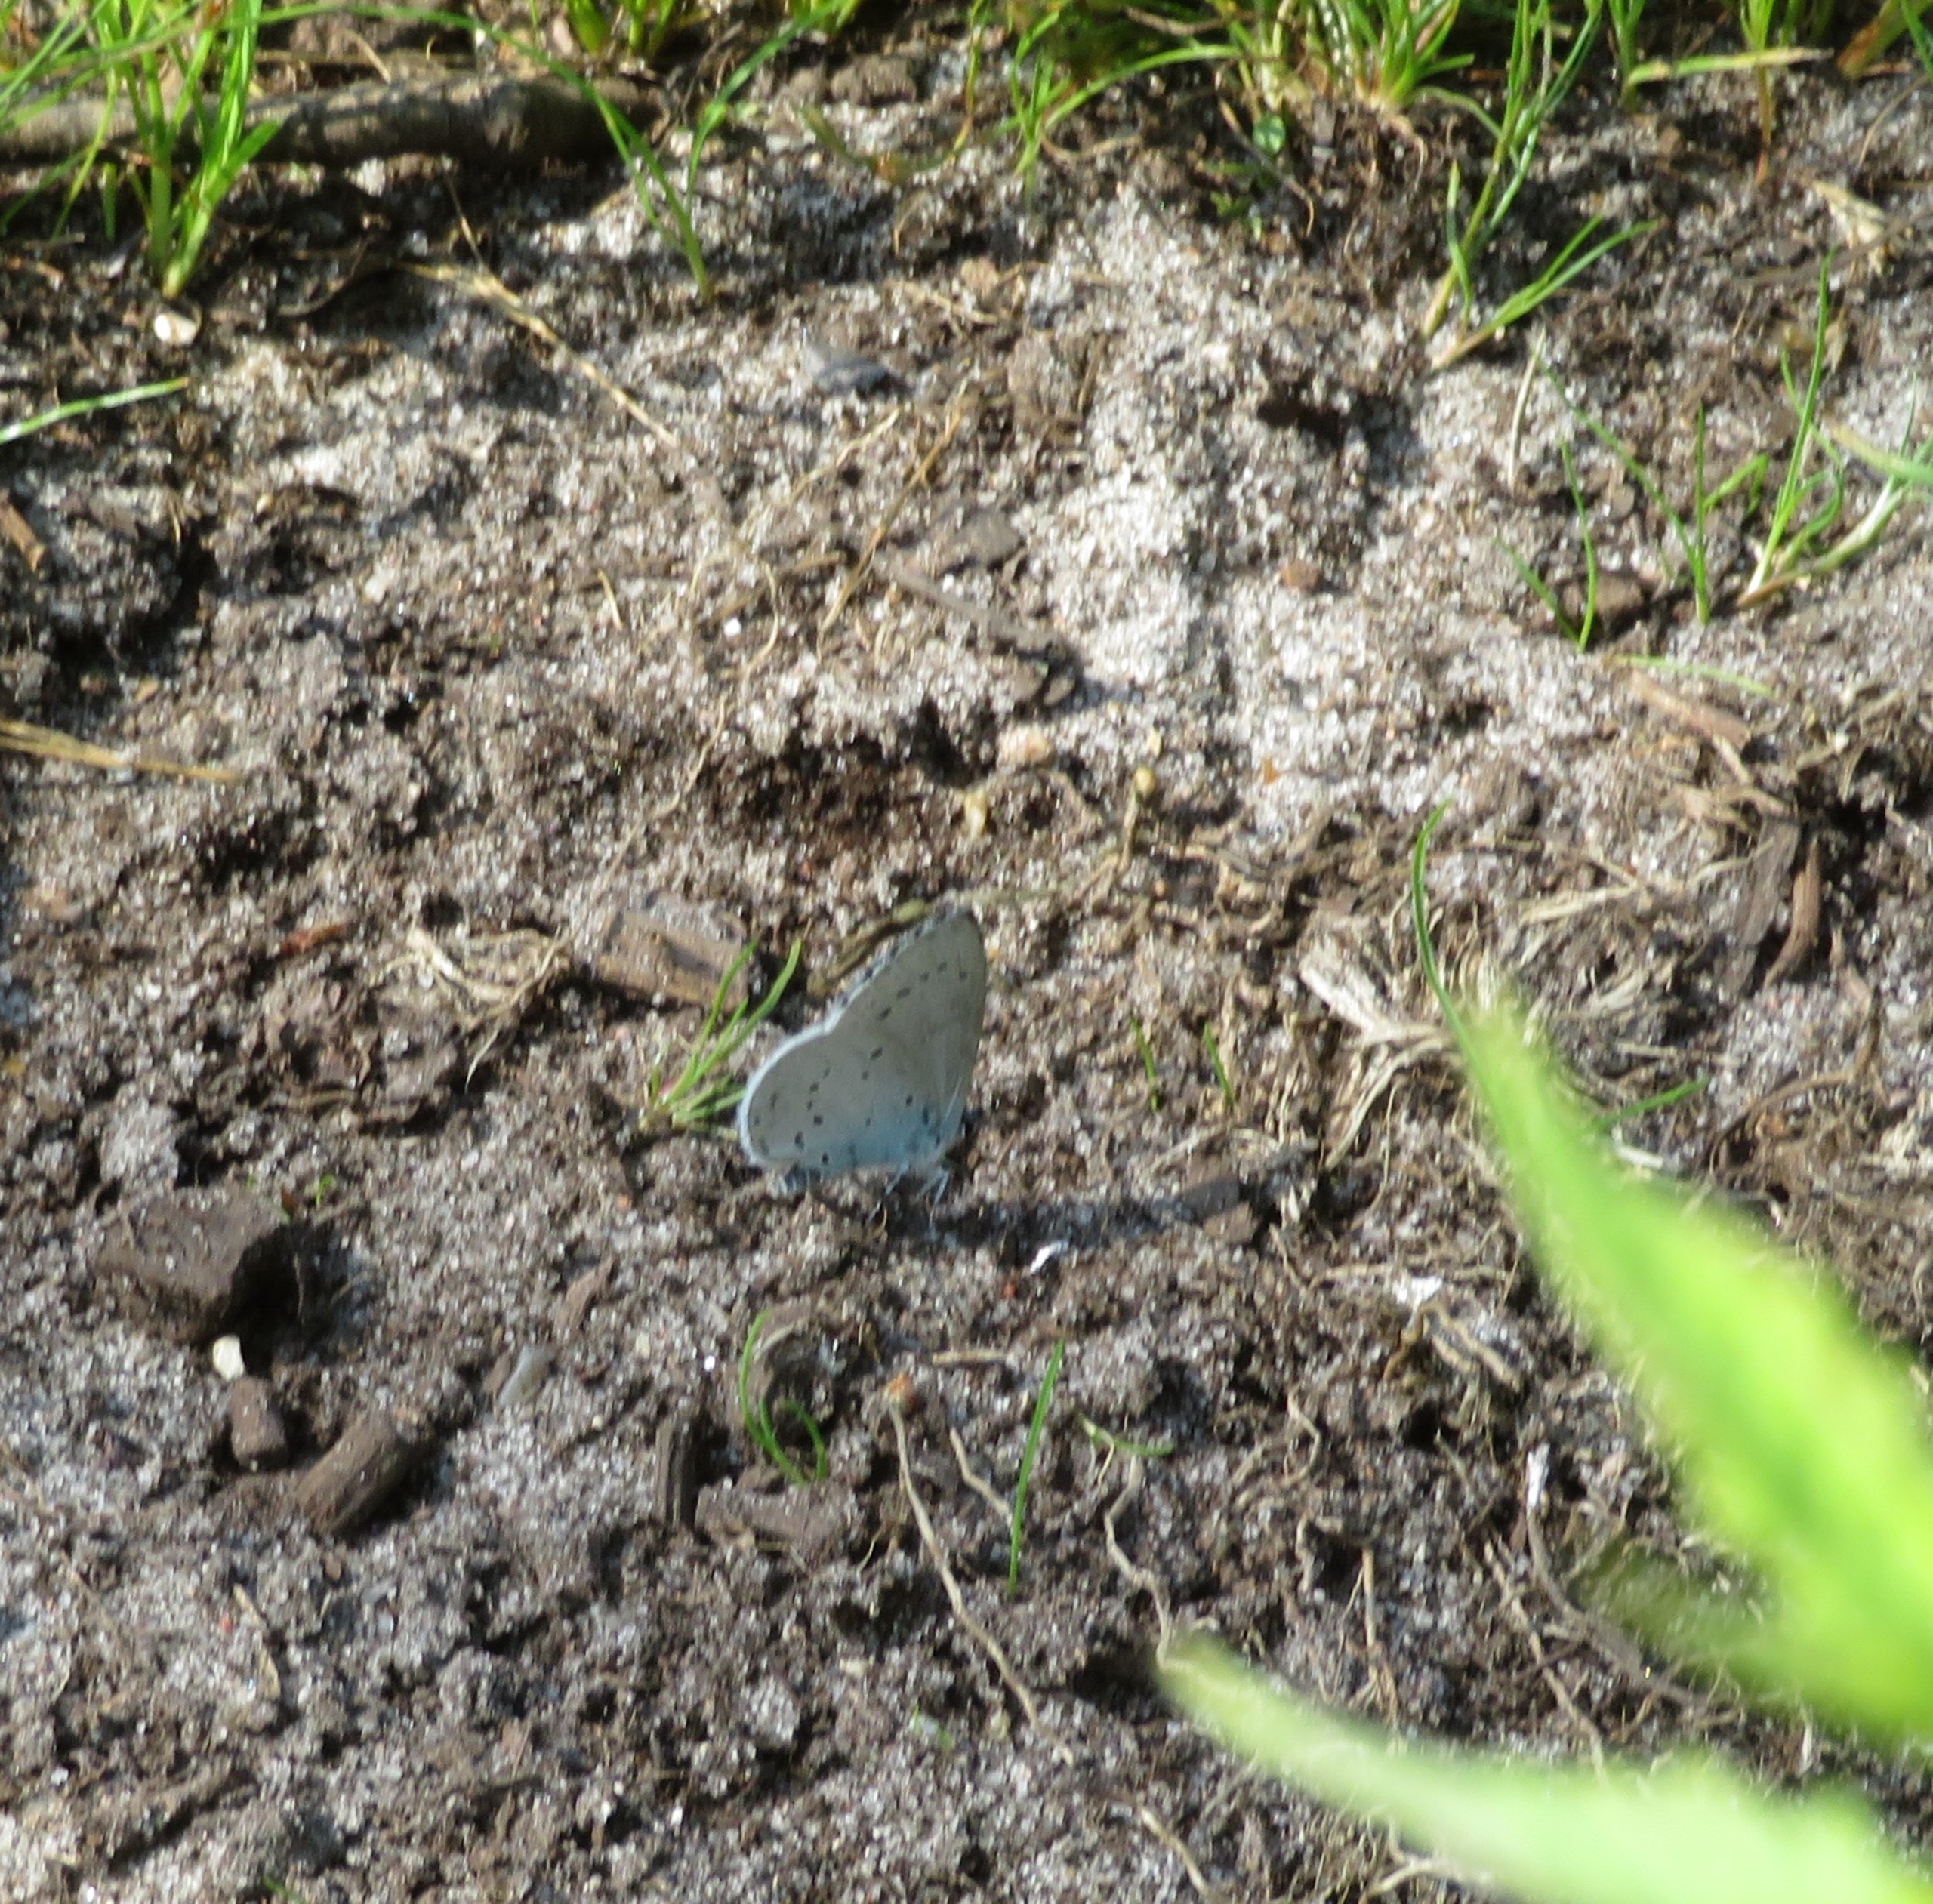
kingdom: Animalia
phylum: Arthropoda
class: Insecta
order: Lepidoptera
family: Lycaenidae
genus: Celastrina
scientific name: Celastrina argiolus
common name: Skovblåfugl
